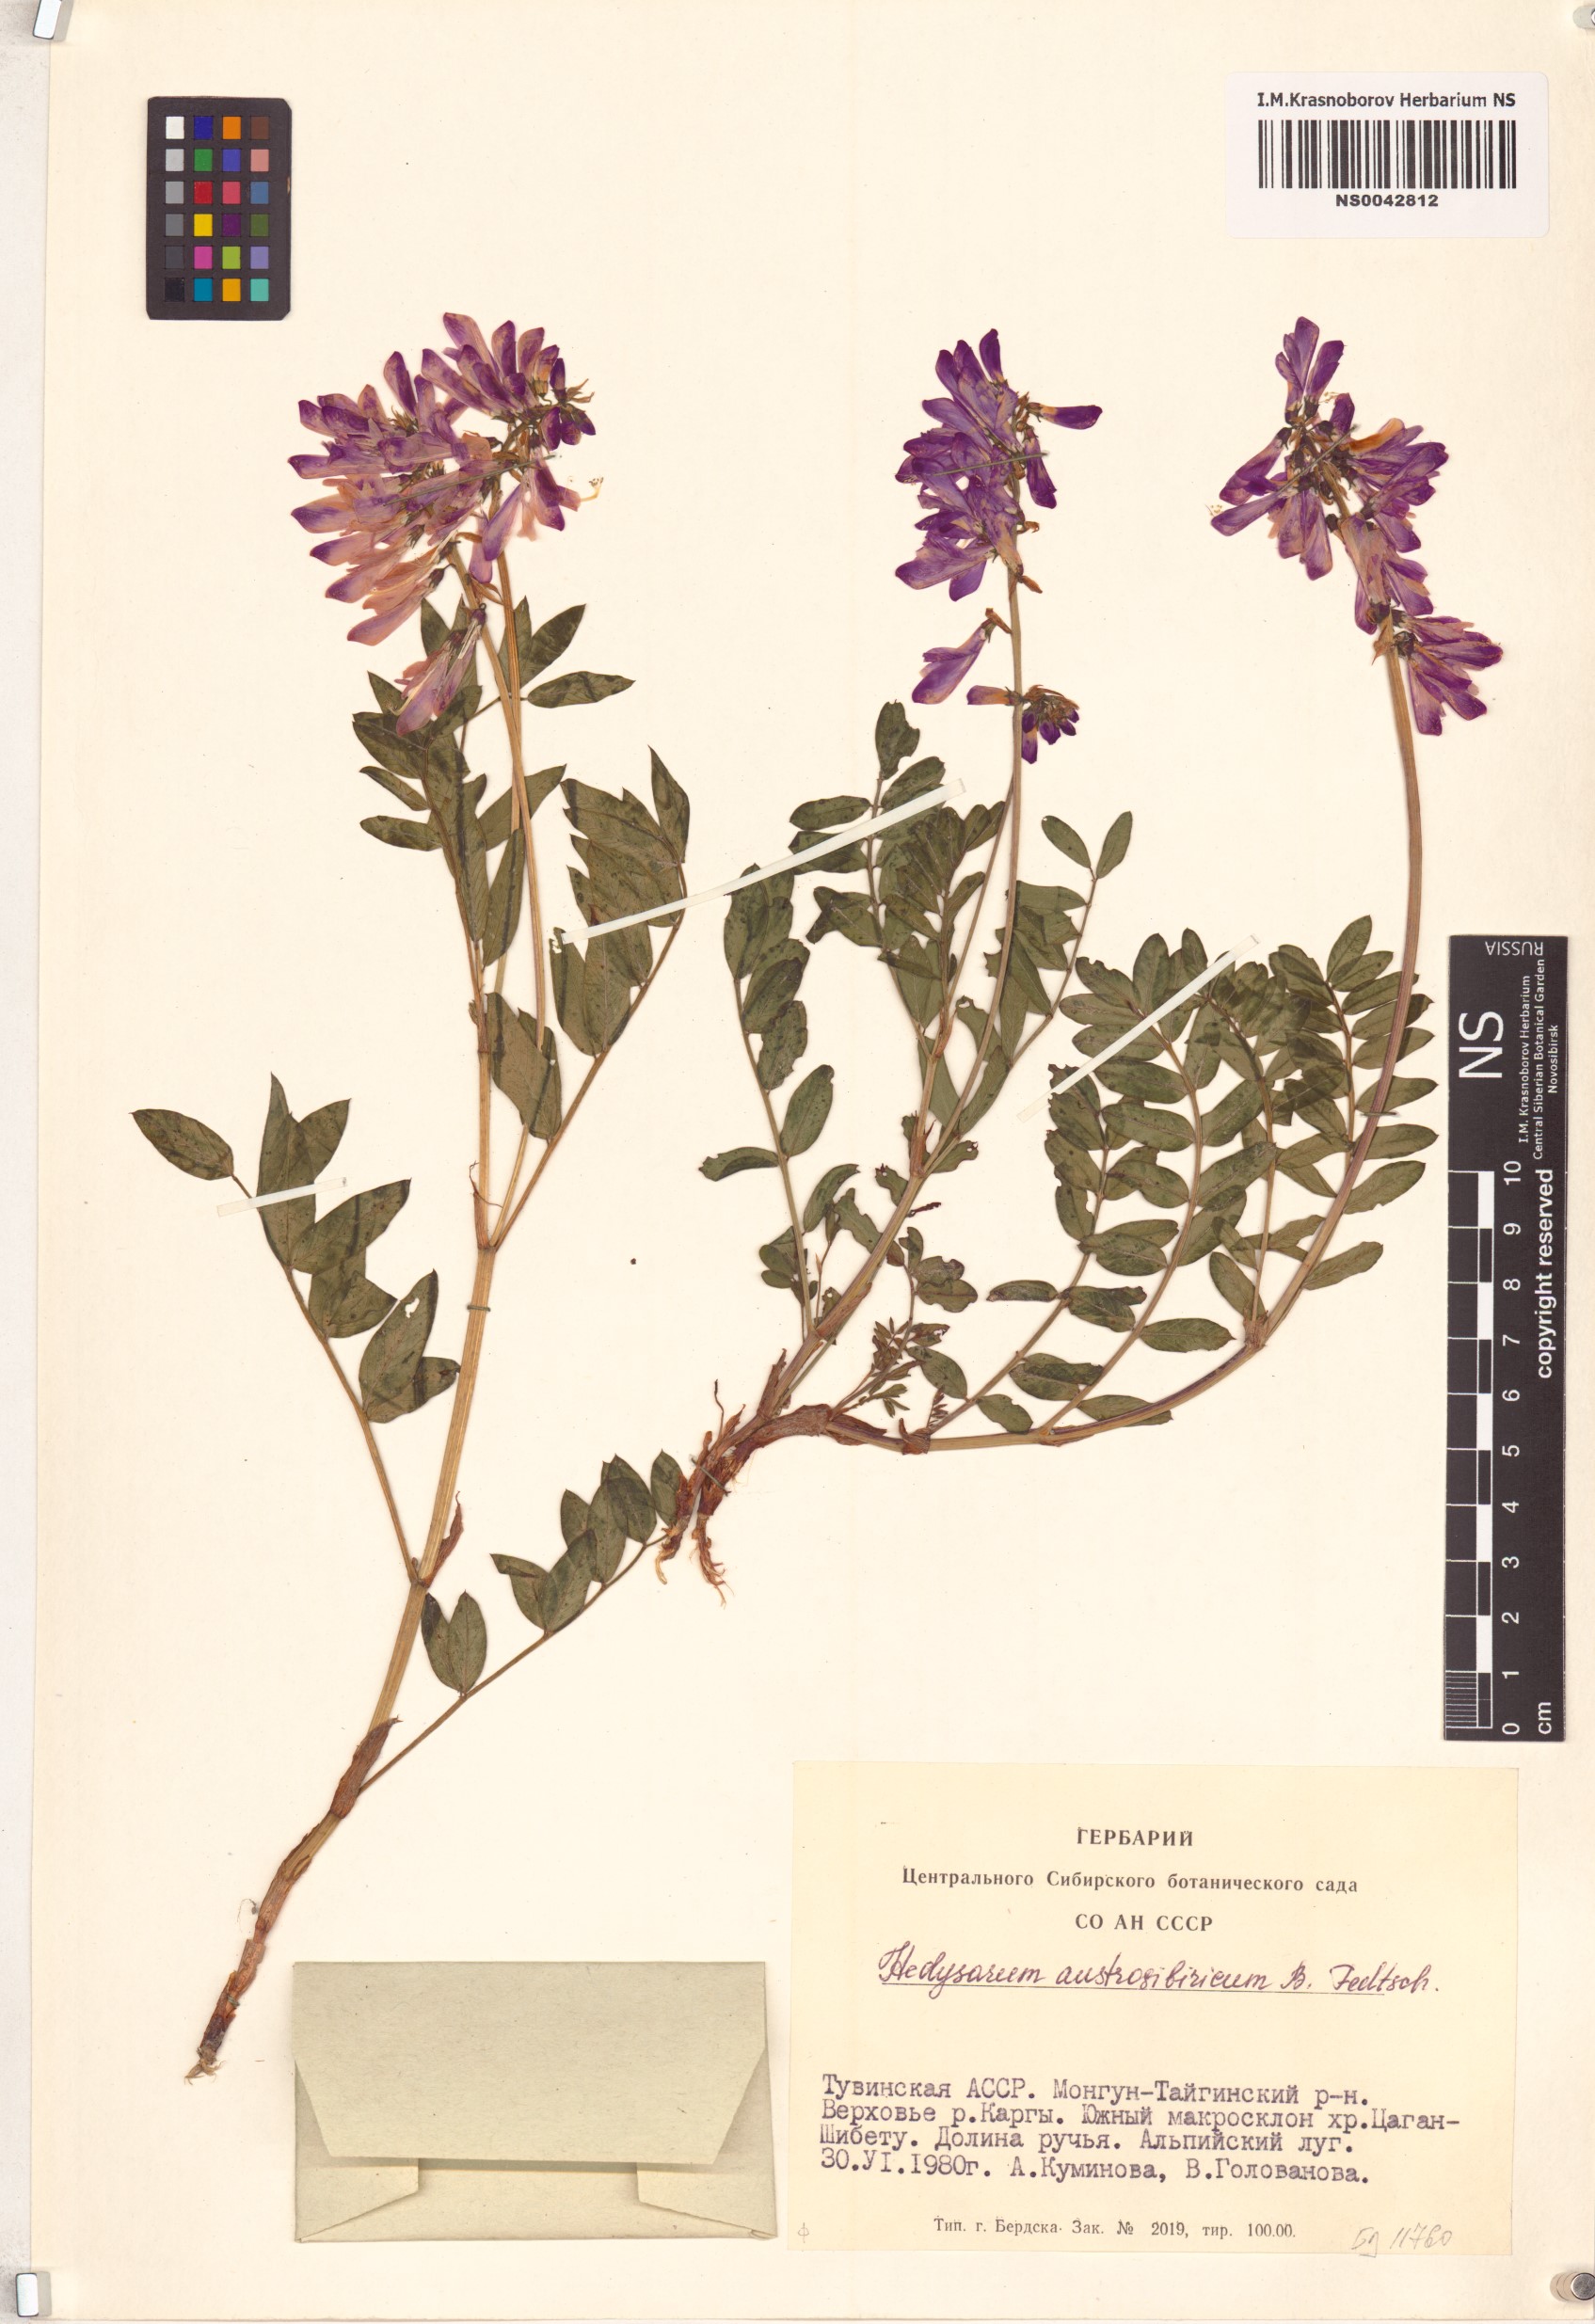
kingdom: Plantae
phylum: Tracheophyta
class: Magnoliopsida
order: Fabales
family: Fabaceae
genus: Hedysarum
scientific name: Hedysarum neglectum
